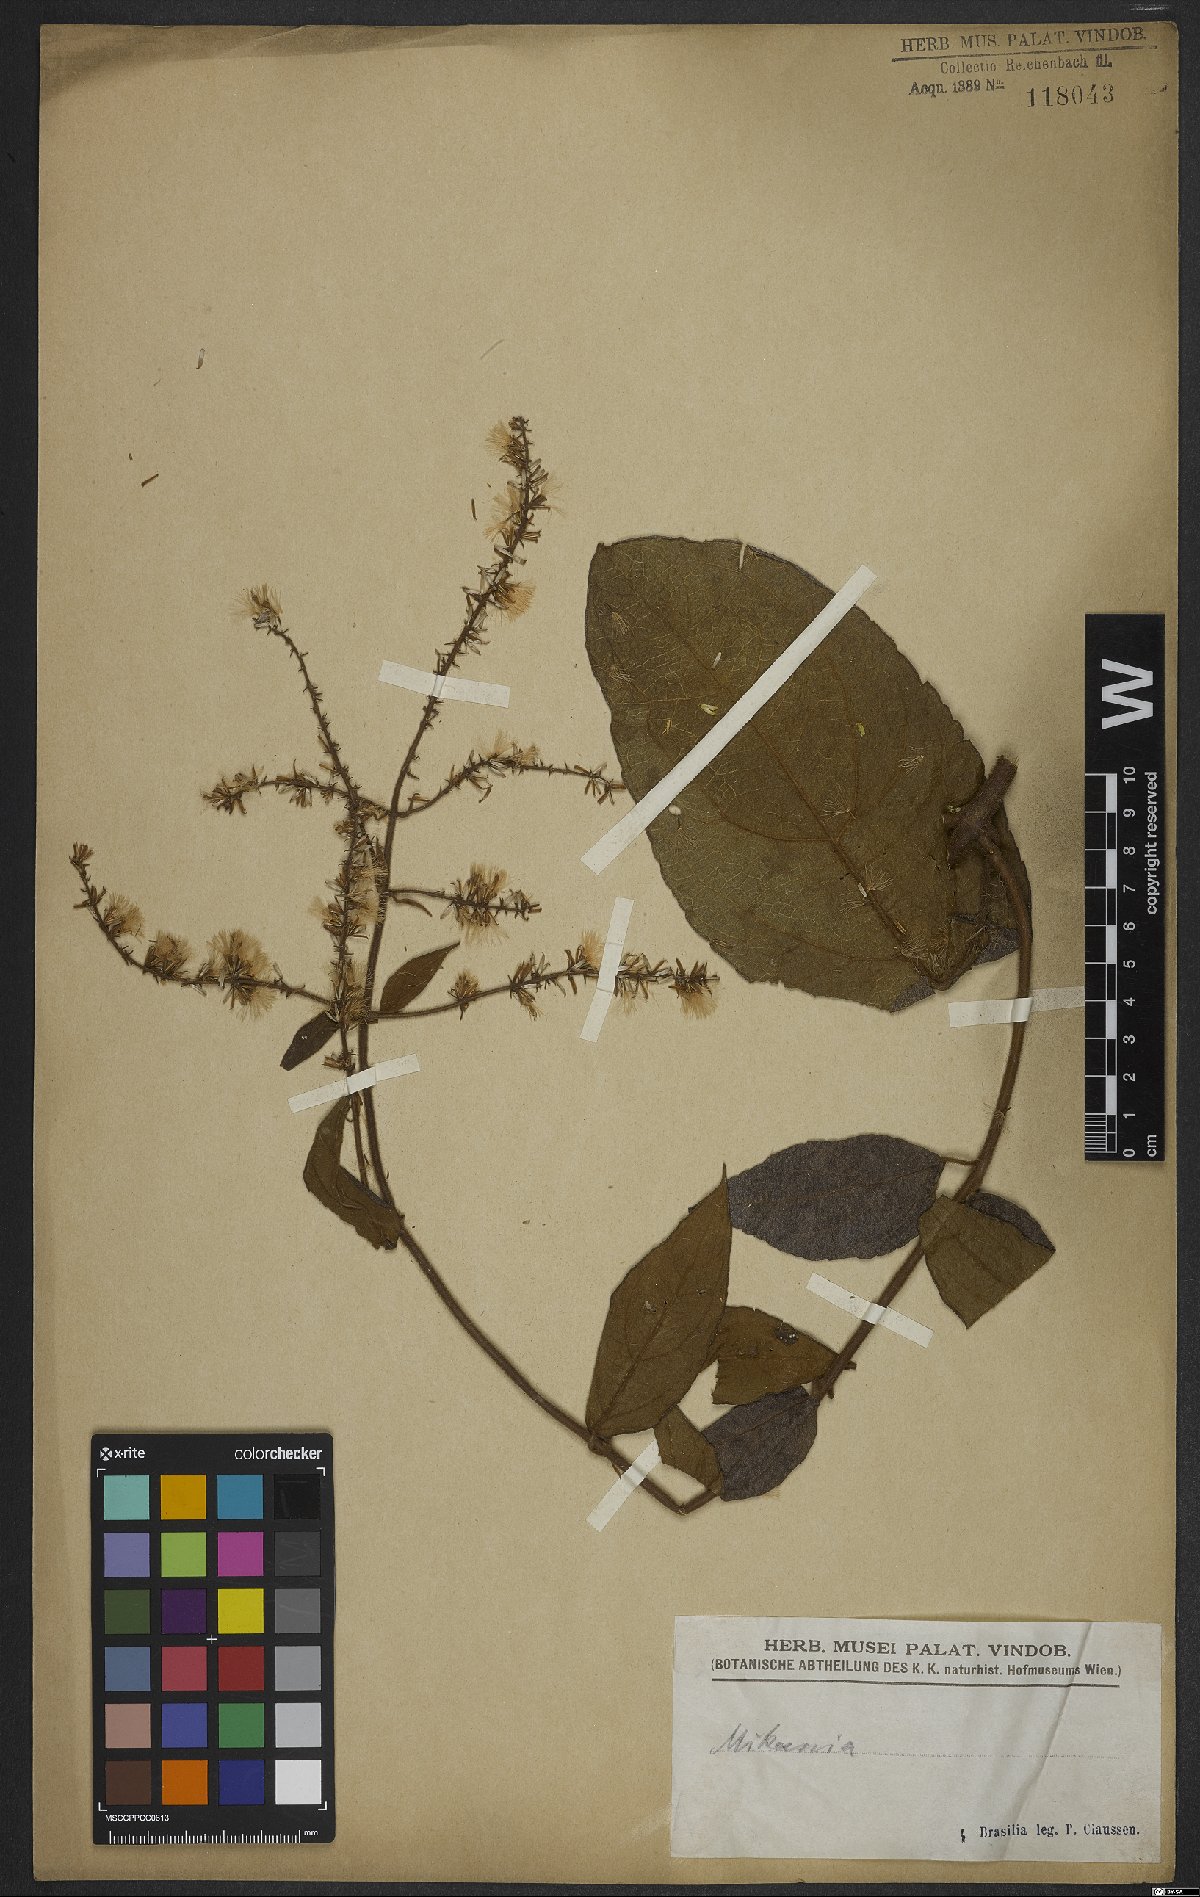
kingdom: Plantae
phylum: Tracheophyta
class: Magnoliopsida
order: Asterales
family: Asteraceae
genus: Mikania
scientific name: Mikania
